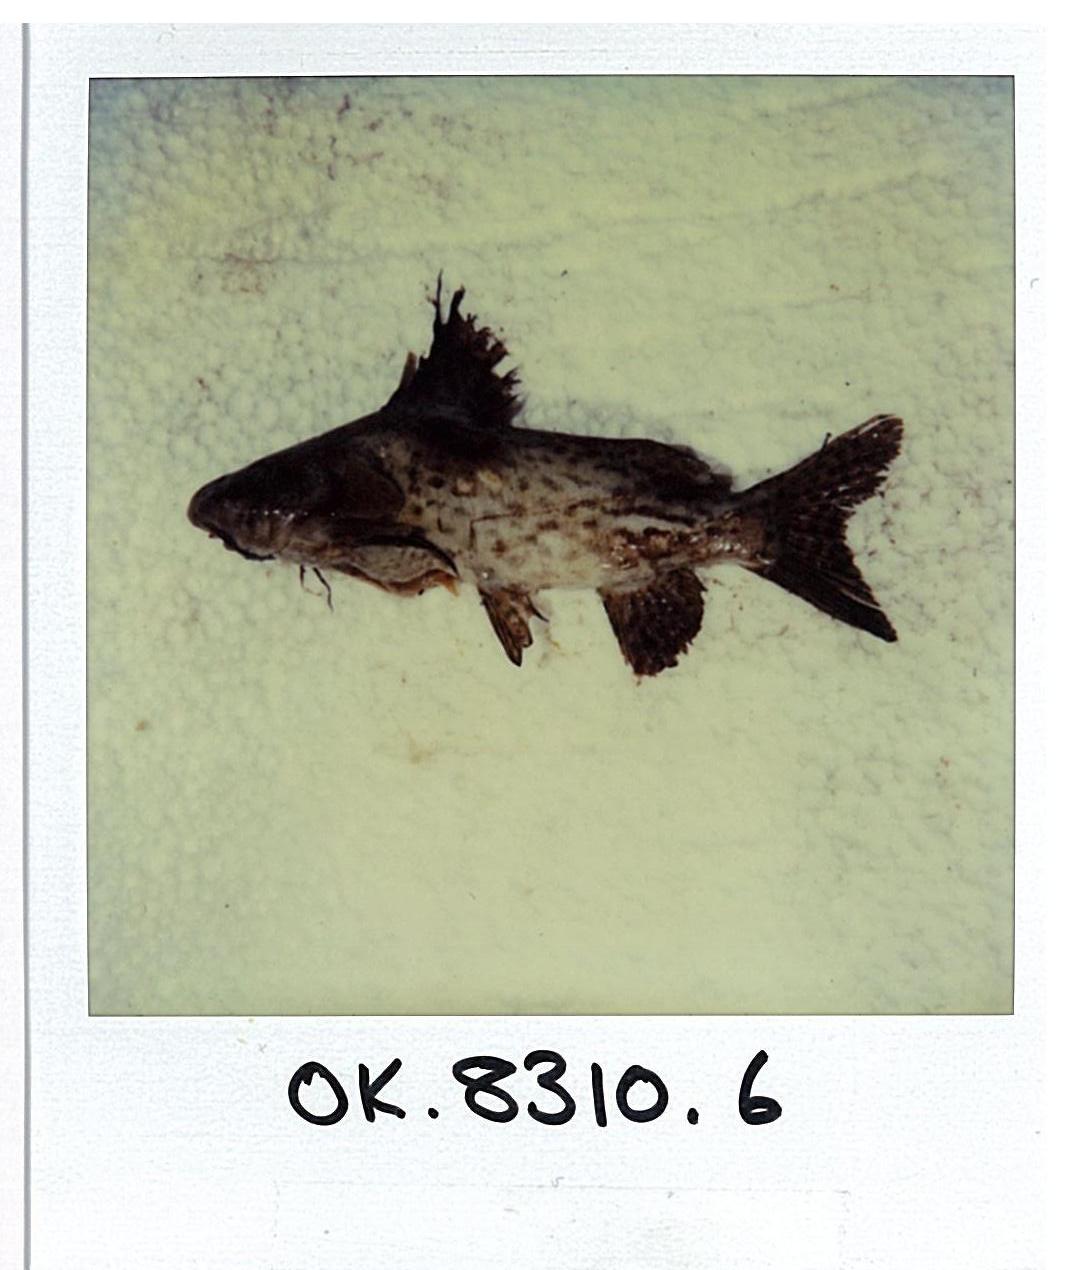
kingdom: Animalia
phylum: Chordata
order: Siluriformes
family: Mochokidae
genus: Synodontis
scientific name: Synodontis macrostigma
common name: Largespot squeaker
